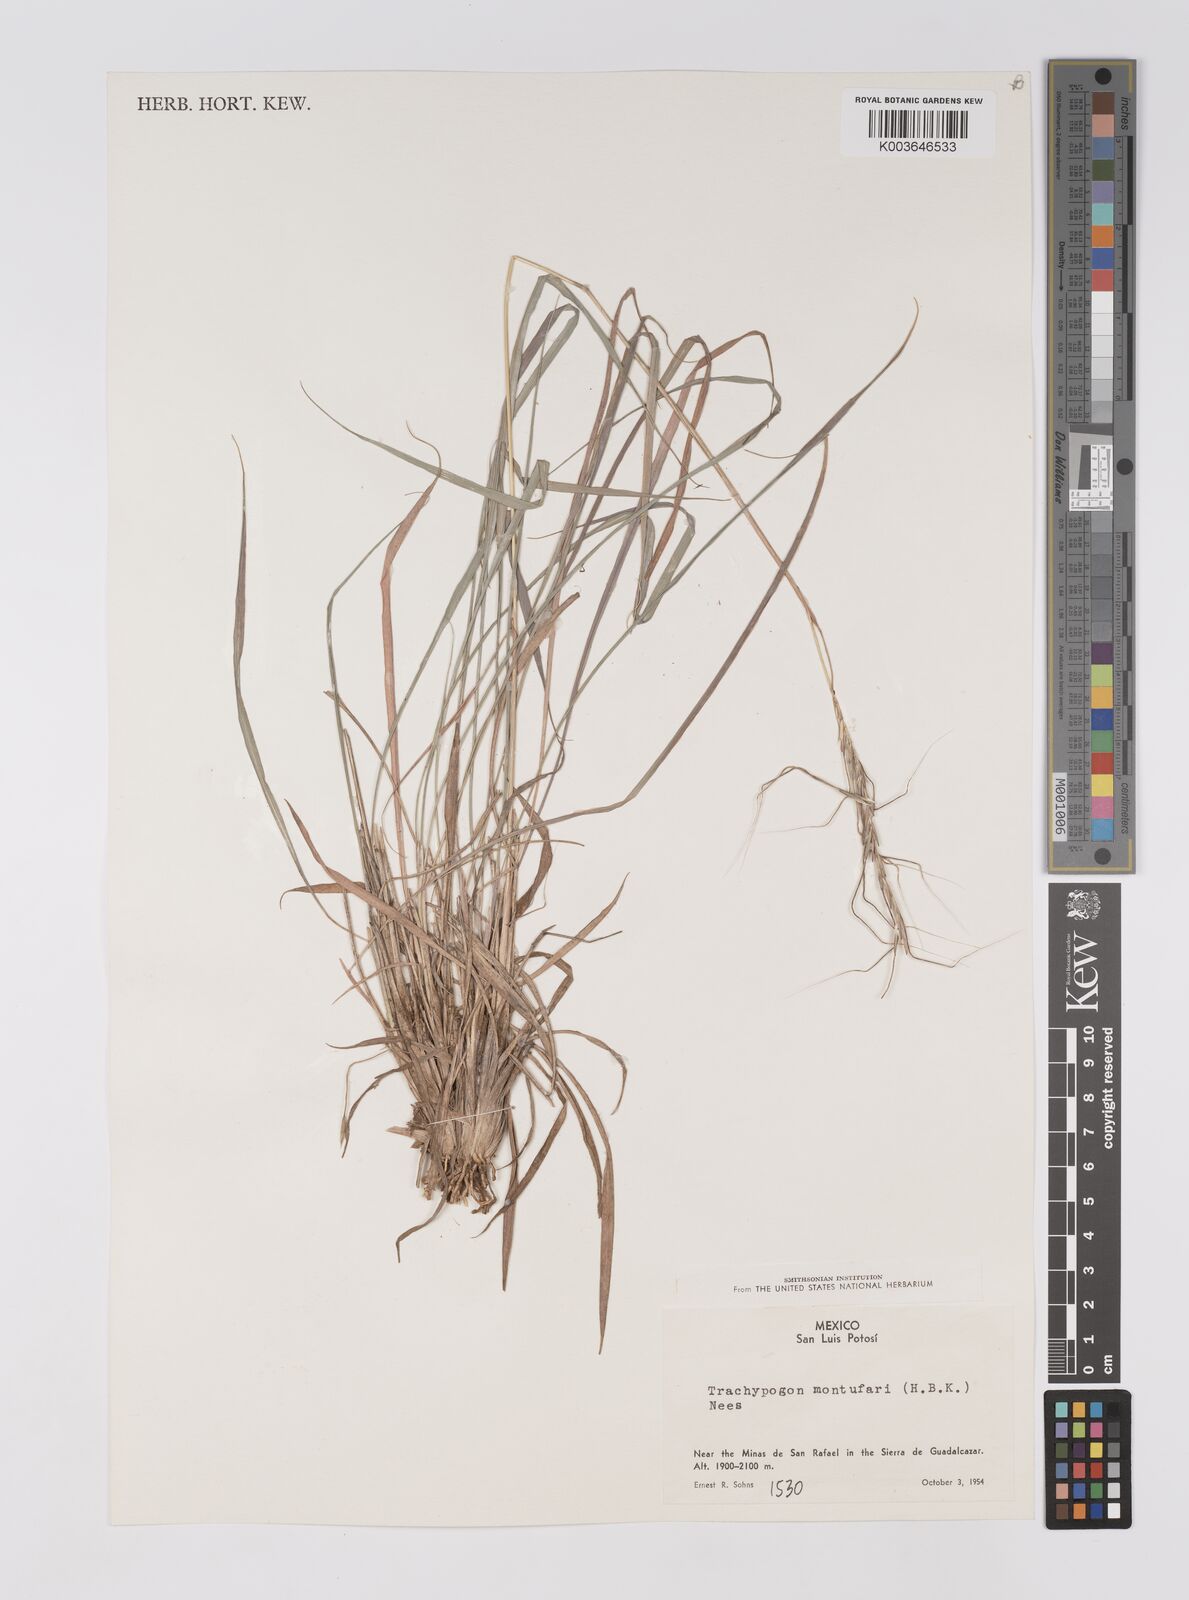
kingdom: Plantae
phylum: Tracheophyta
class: Liliopsida
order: Poales
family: Poaceae
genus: Trachypogon
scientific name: Trachypogon spicatus
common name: Crinkle-awn
